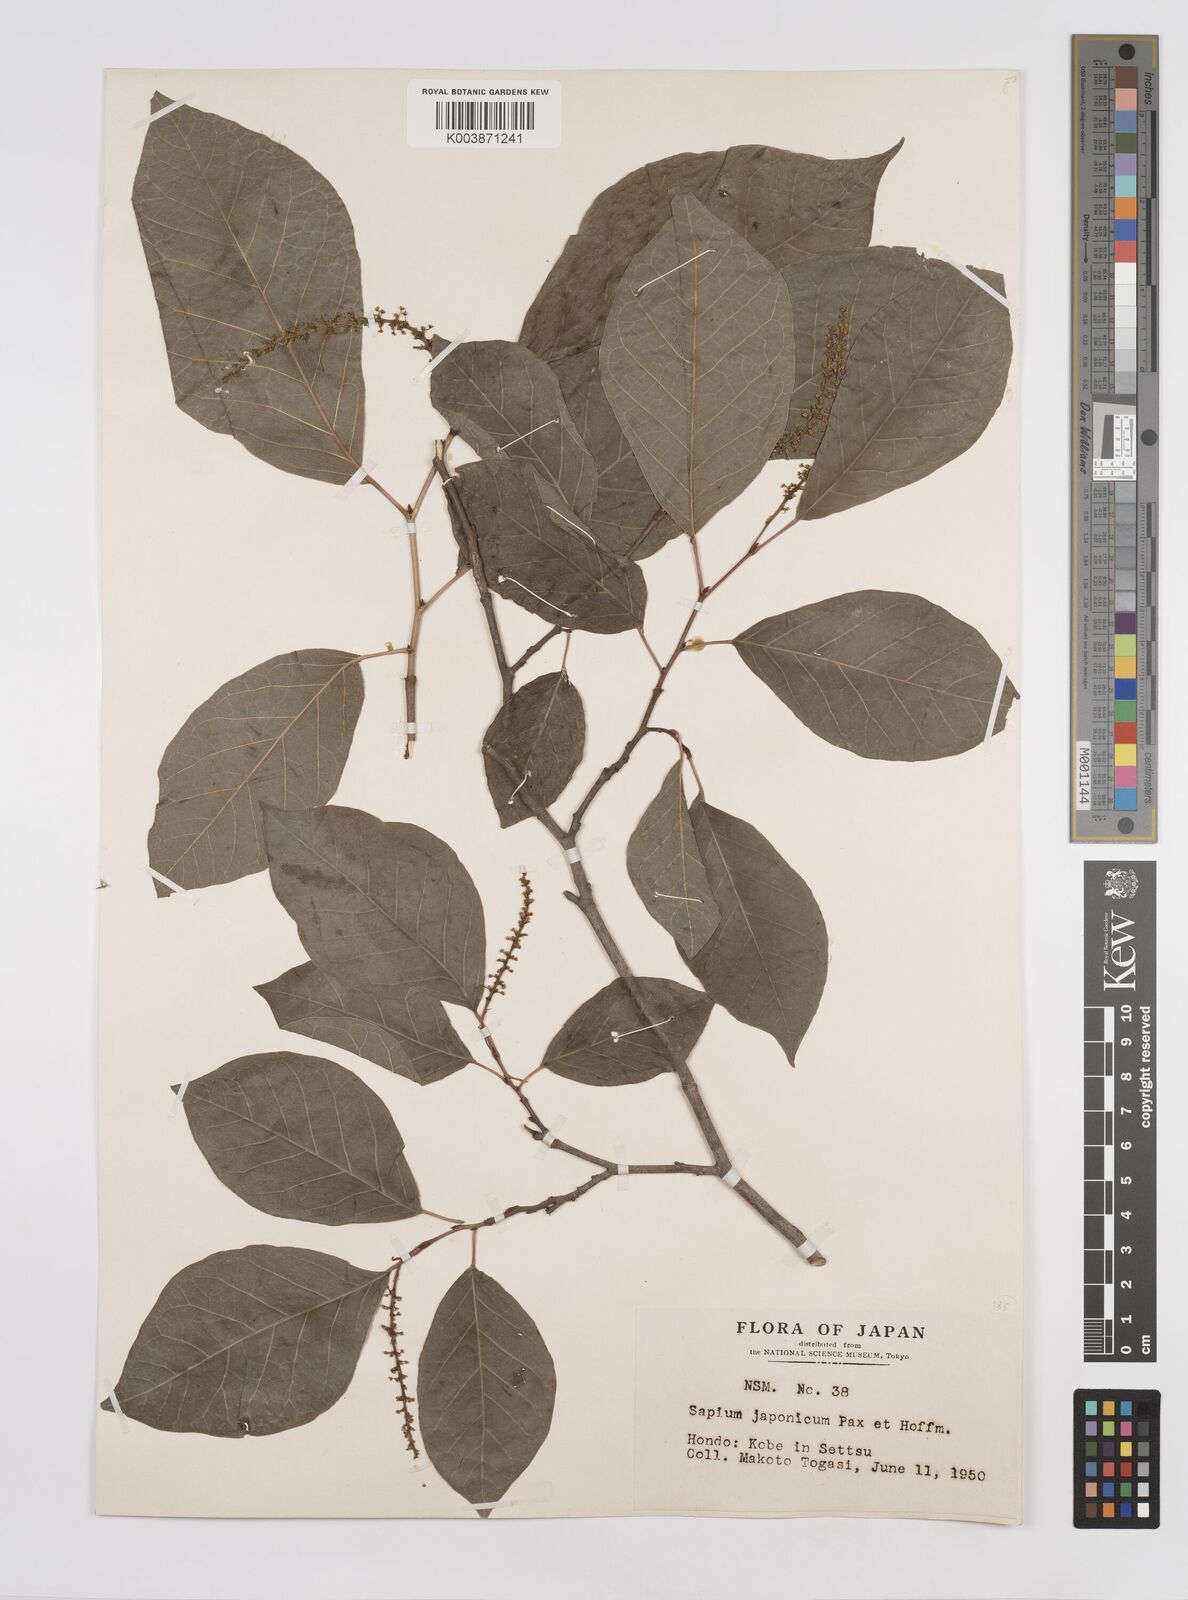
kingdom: Plantae
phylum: Tracheophyta
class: Magnoliopsida
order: Malpighiales
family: Euphorbiaceae
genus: Neoshirakia
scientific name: Neoshirakia japonica
